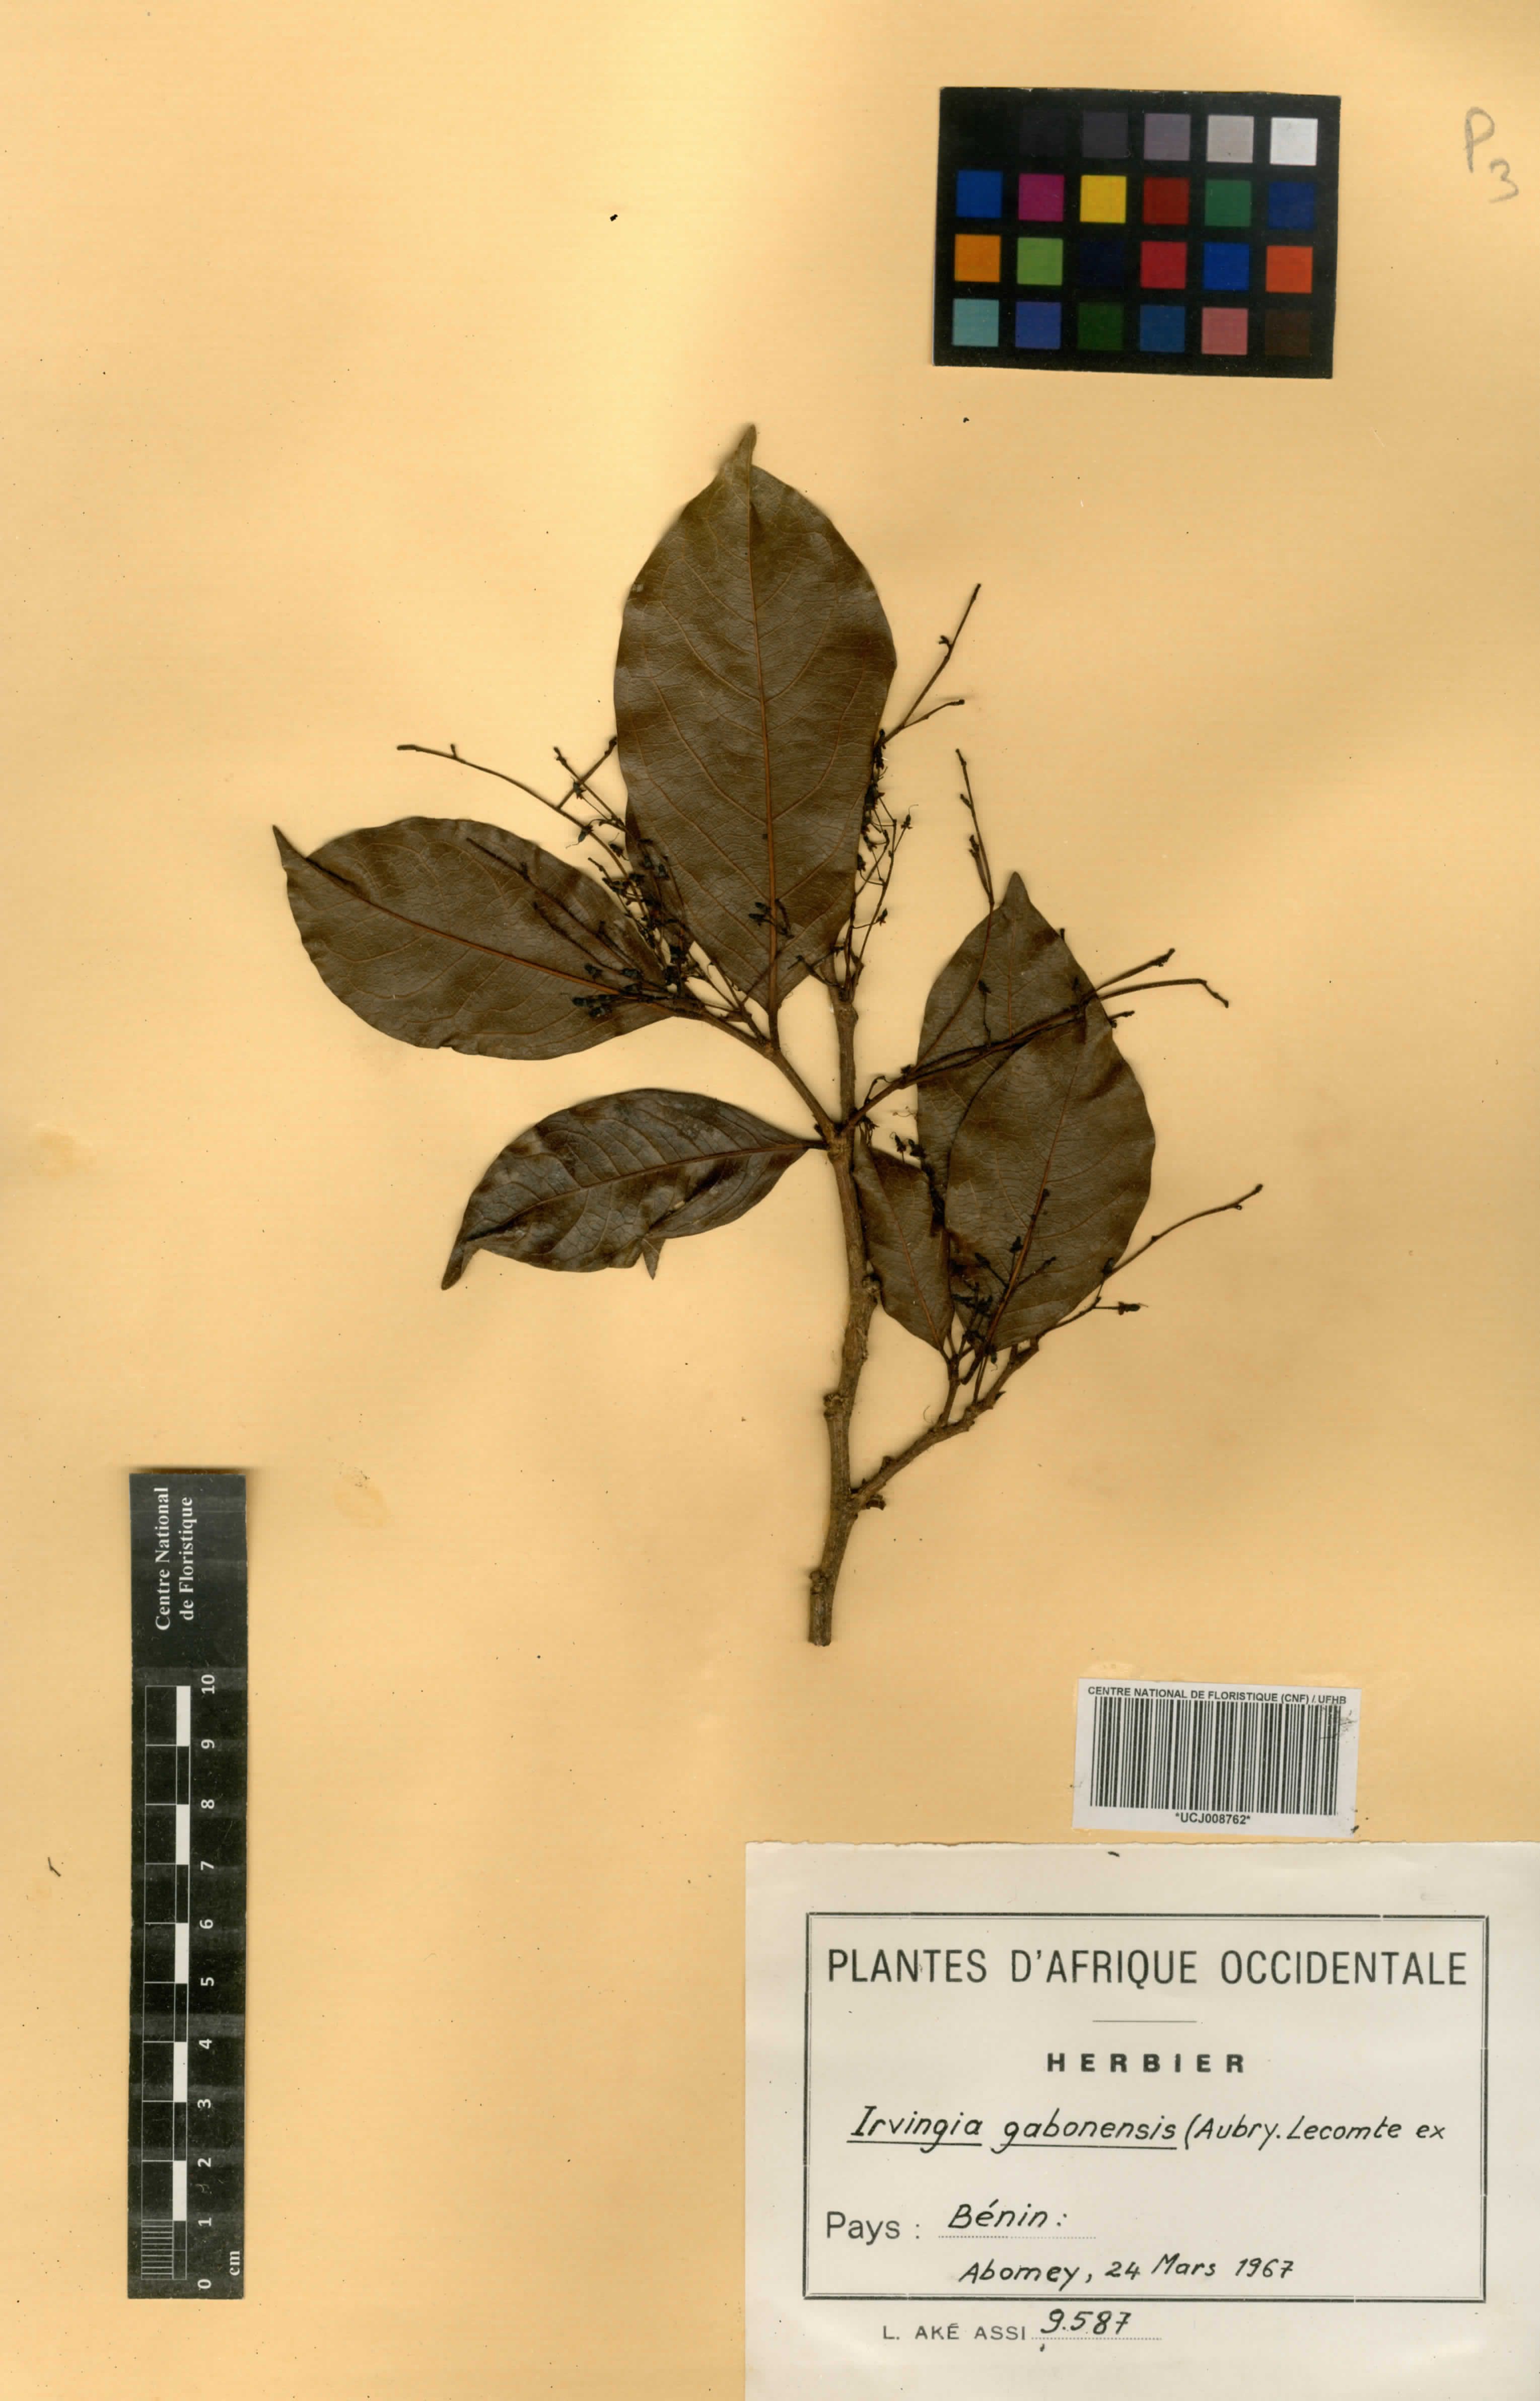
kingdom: Plantae
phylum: Tracheophyta
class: Magnoliopsida
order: Malpighiales
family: Irvingiaceae
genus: Irvingia
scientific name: Irvingia gabonensis
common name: Rainy season bush-mango
